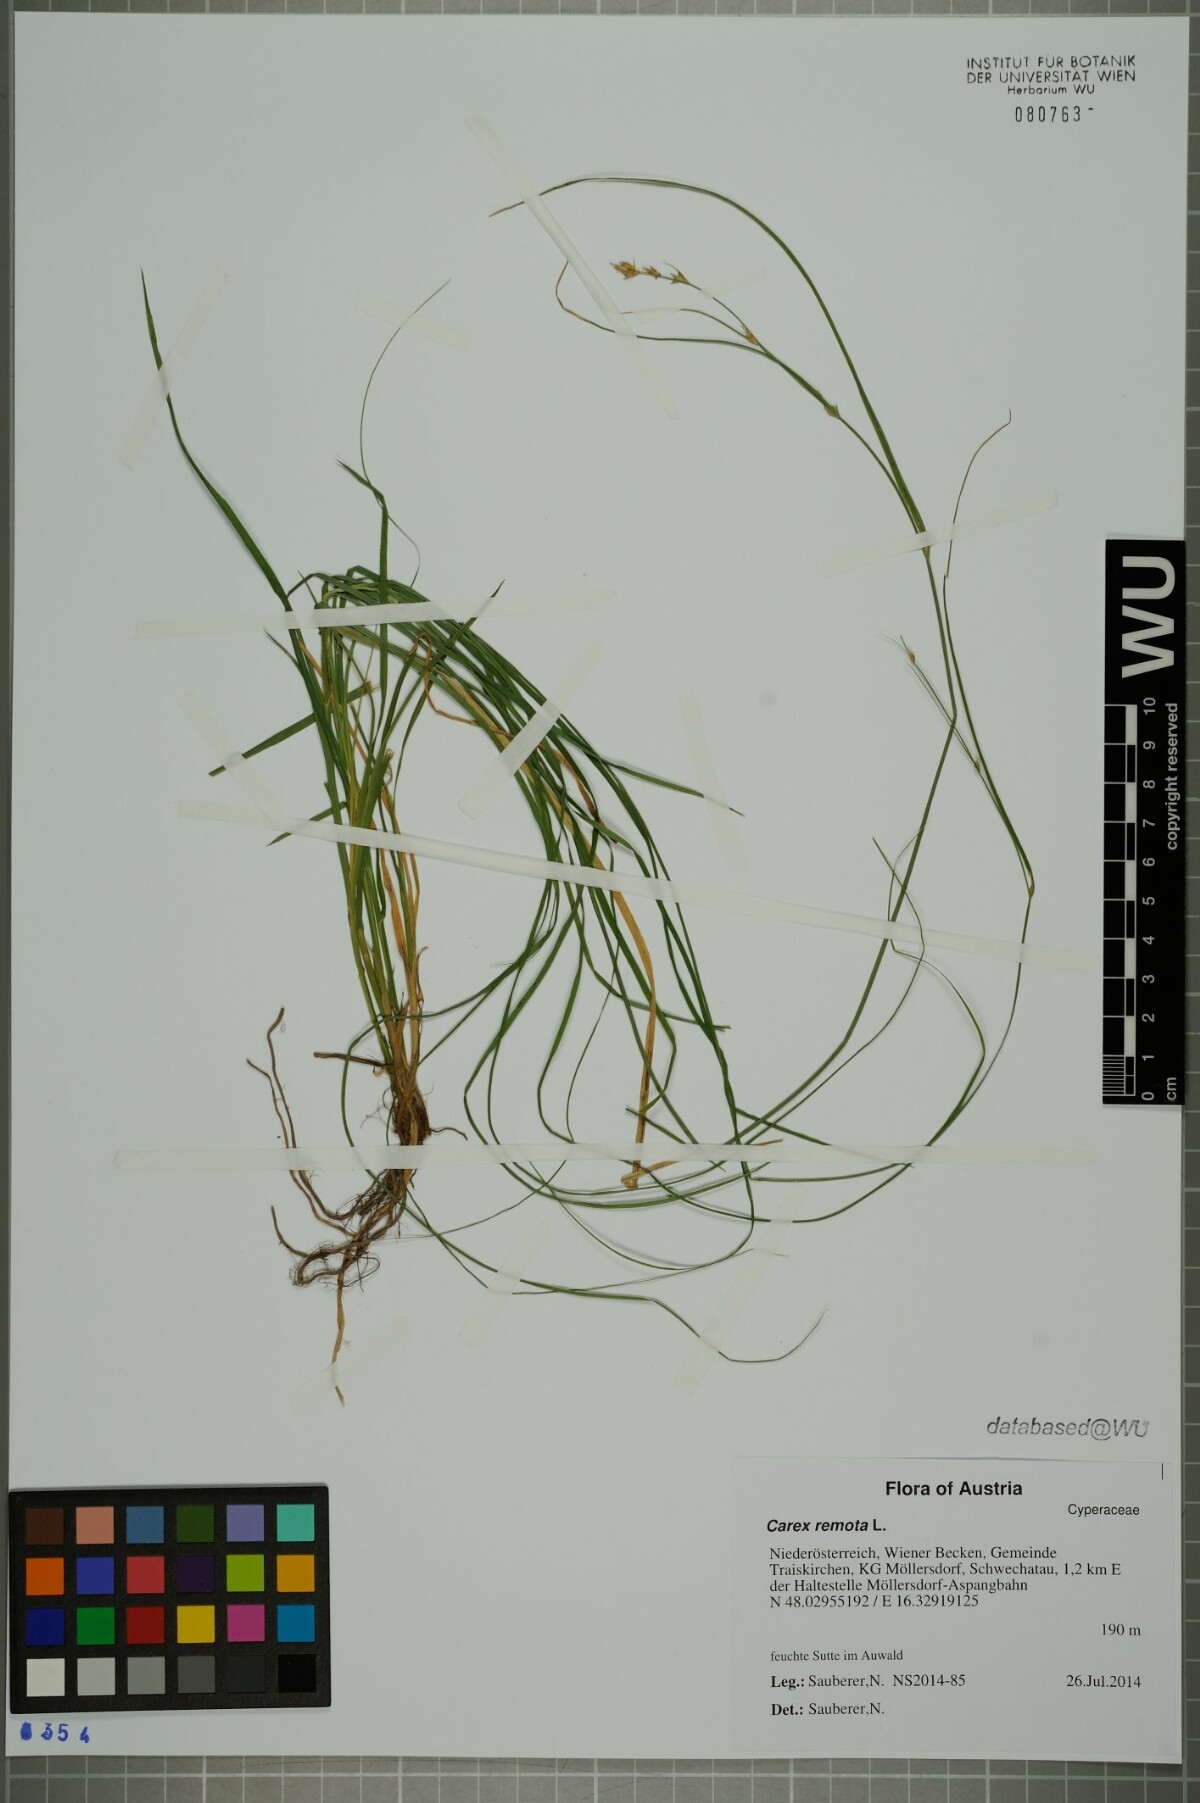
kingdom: Plantae
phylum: Tracheophyta
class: Liliopsida
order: Poales
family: Cyperaceae
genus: Carex
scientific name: Carex remota
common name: Remote sedge
